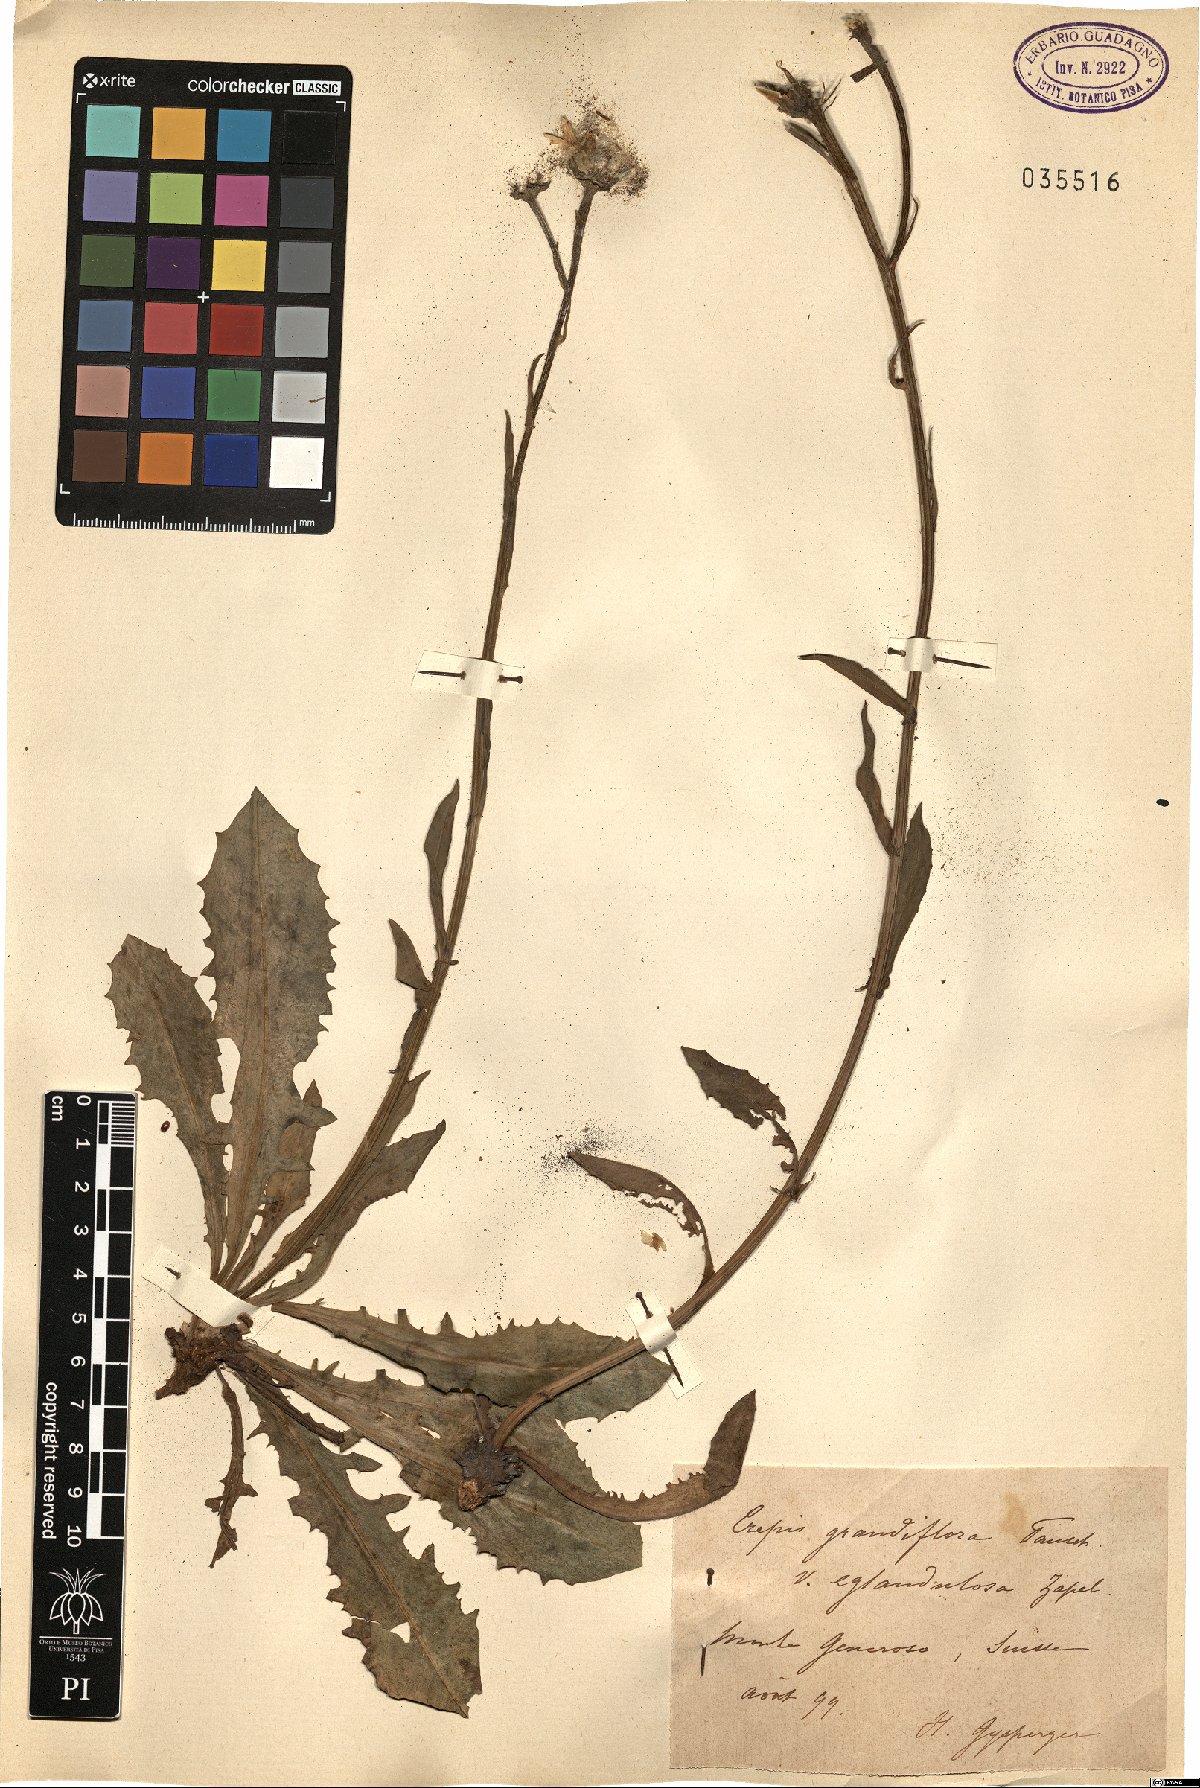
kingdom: Plantae
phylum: Tracheophyta
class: Magnoliopsida
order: Asterales
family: Asteraceae
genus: Crepis
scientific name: Crepis pyrenaica
